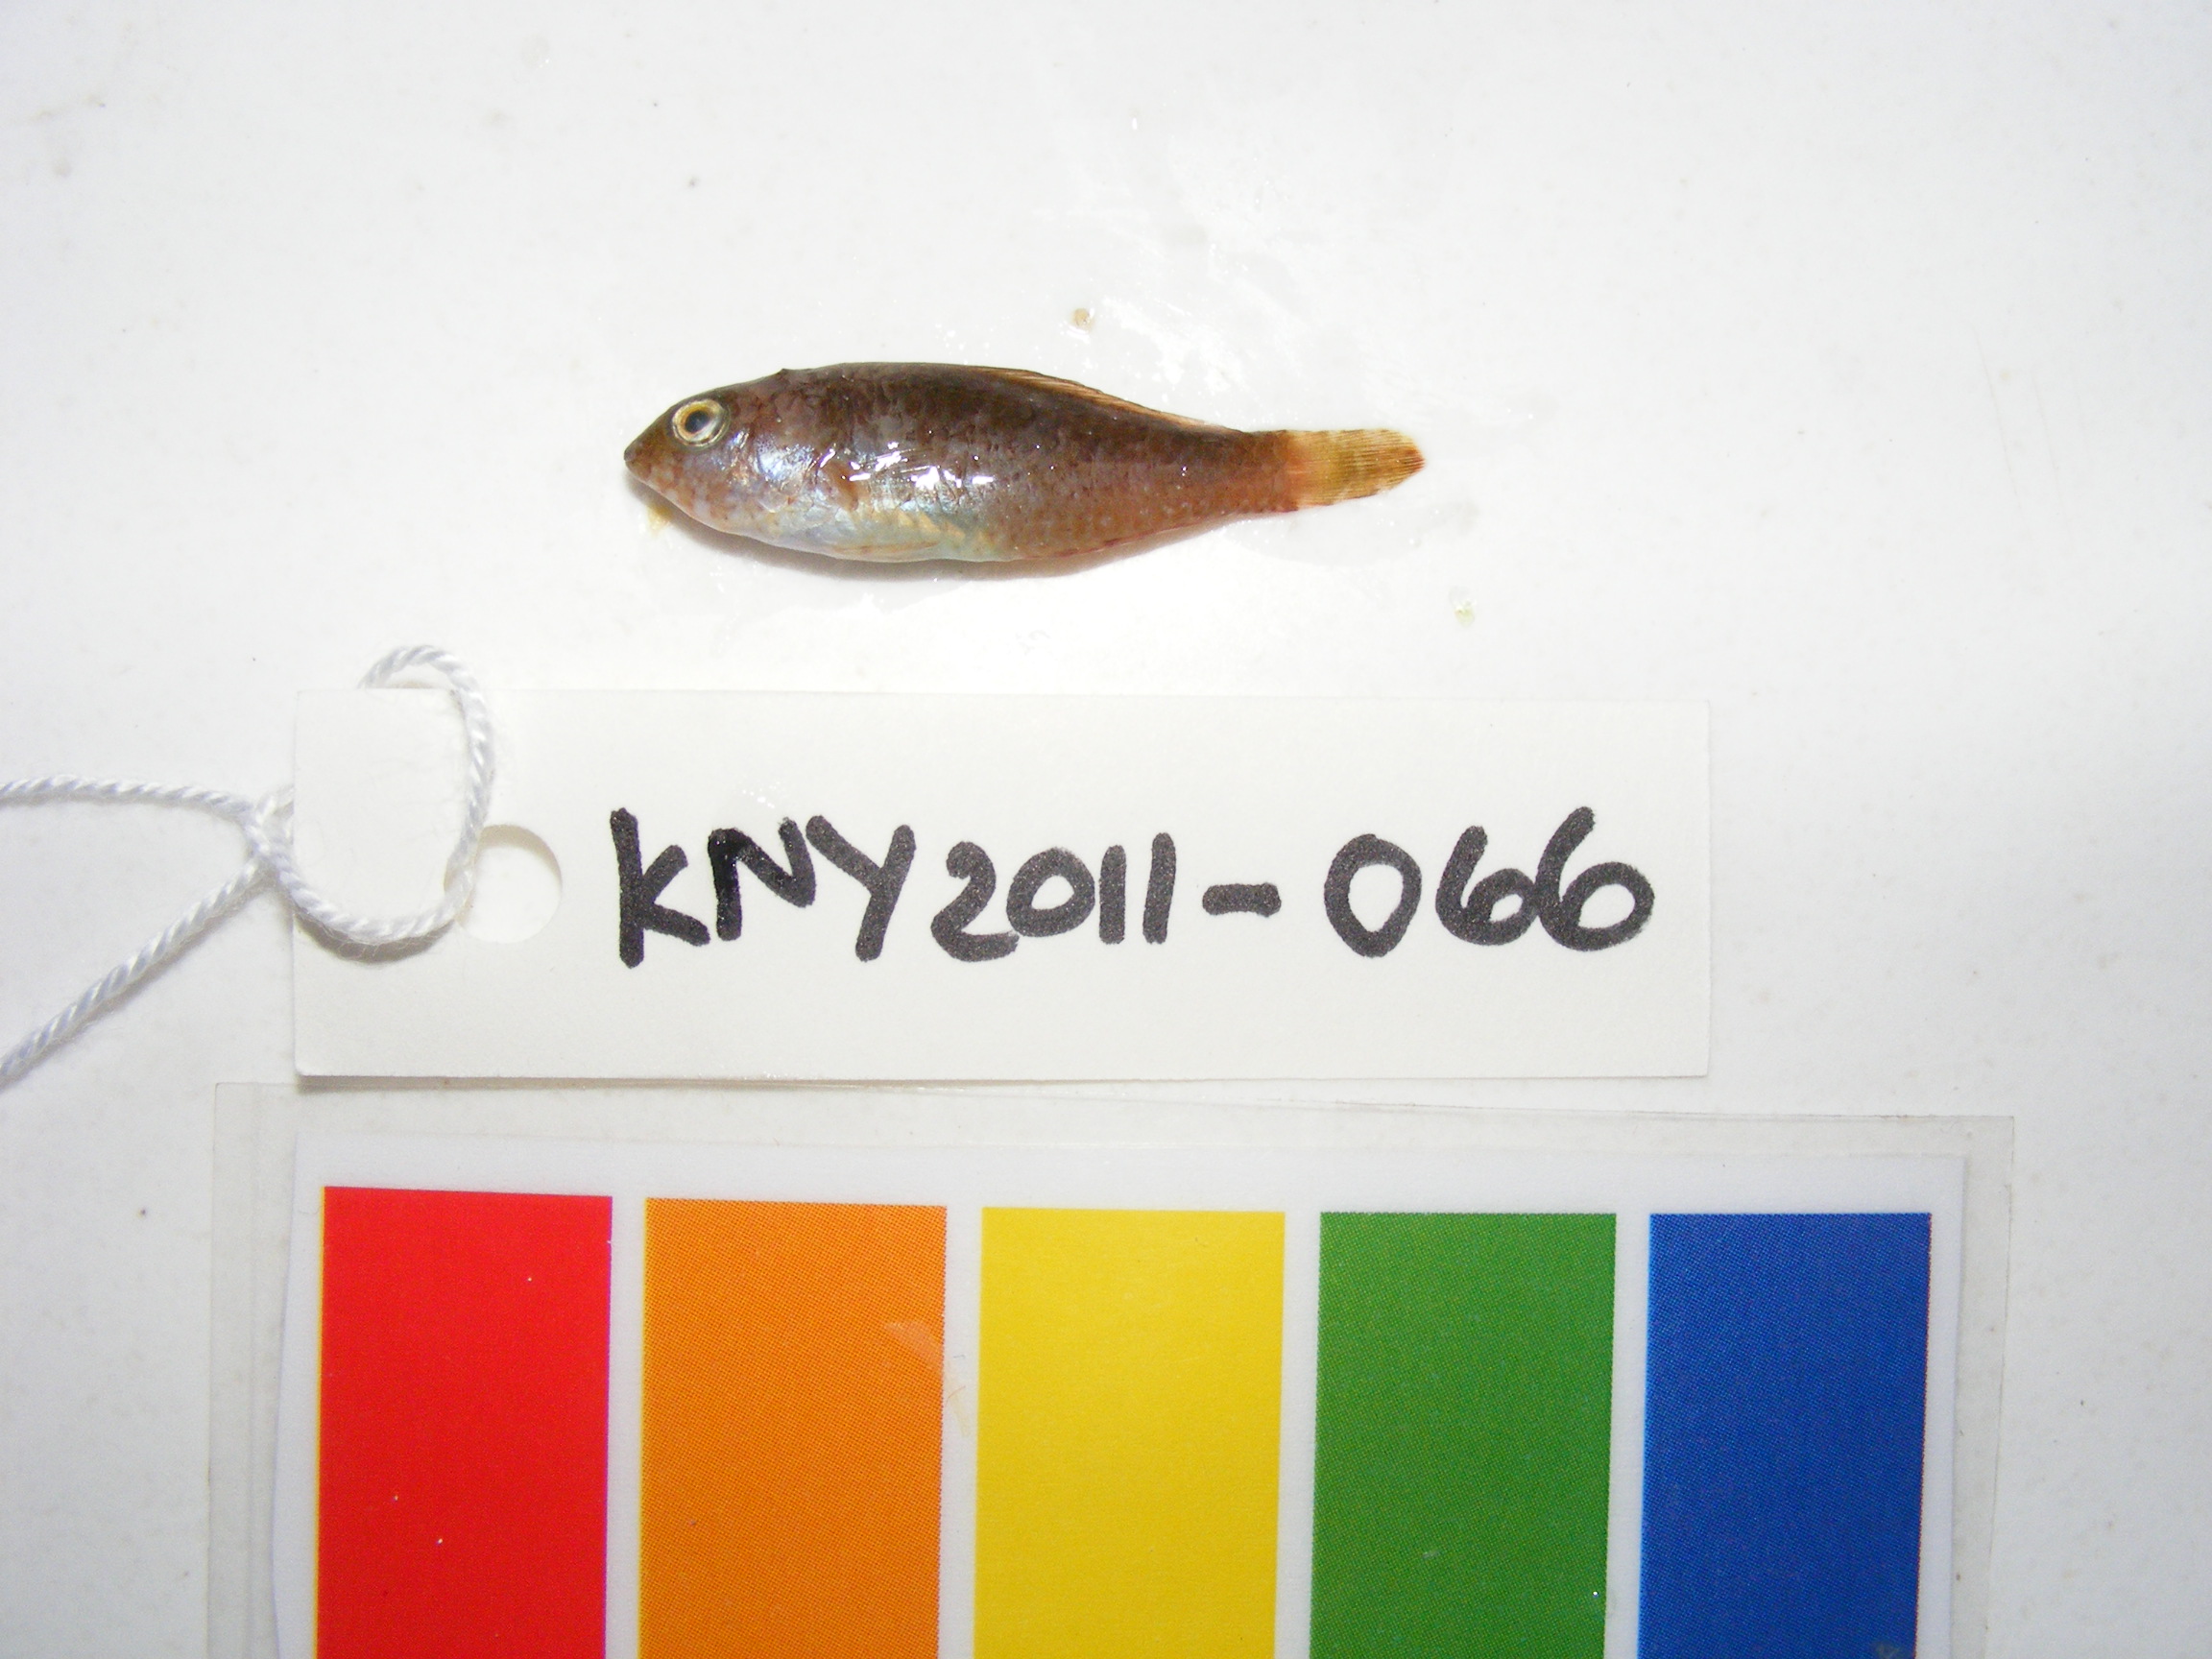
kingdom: Animalia
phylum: Chordata
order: Perciformes
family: Scaridae
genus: Calotomus
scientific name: Calotomus spinidens
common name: Raggedtooth parrotfish
